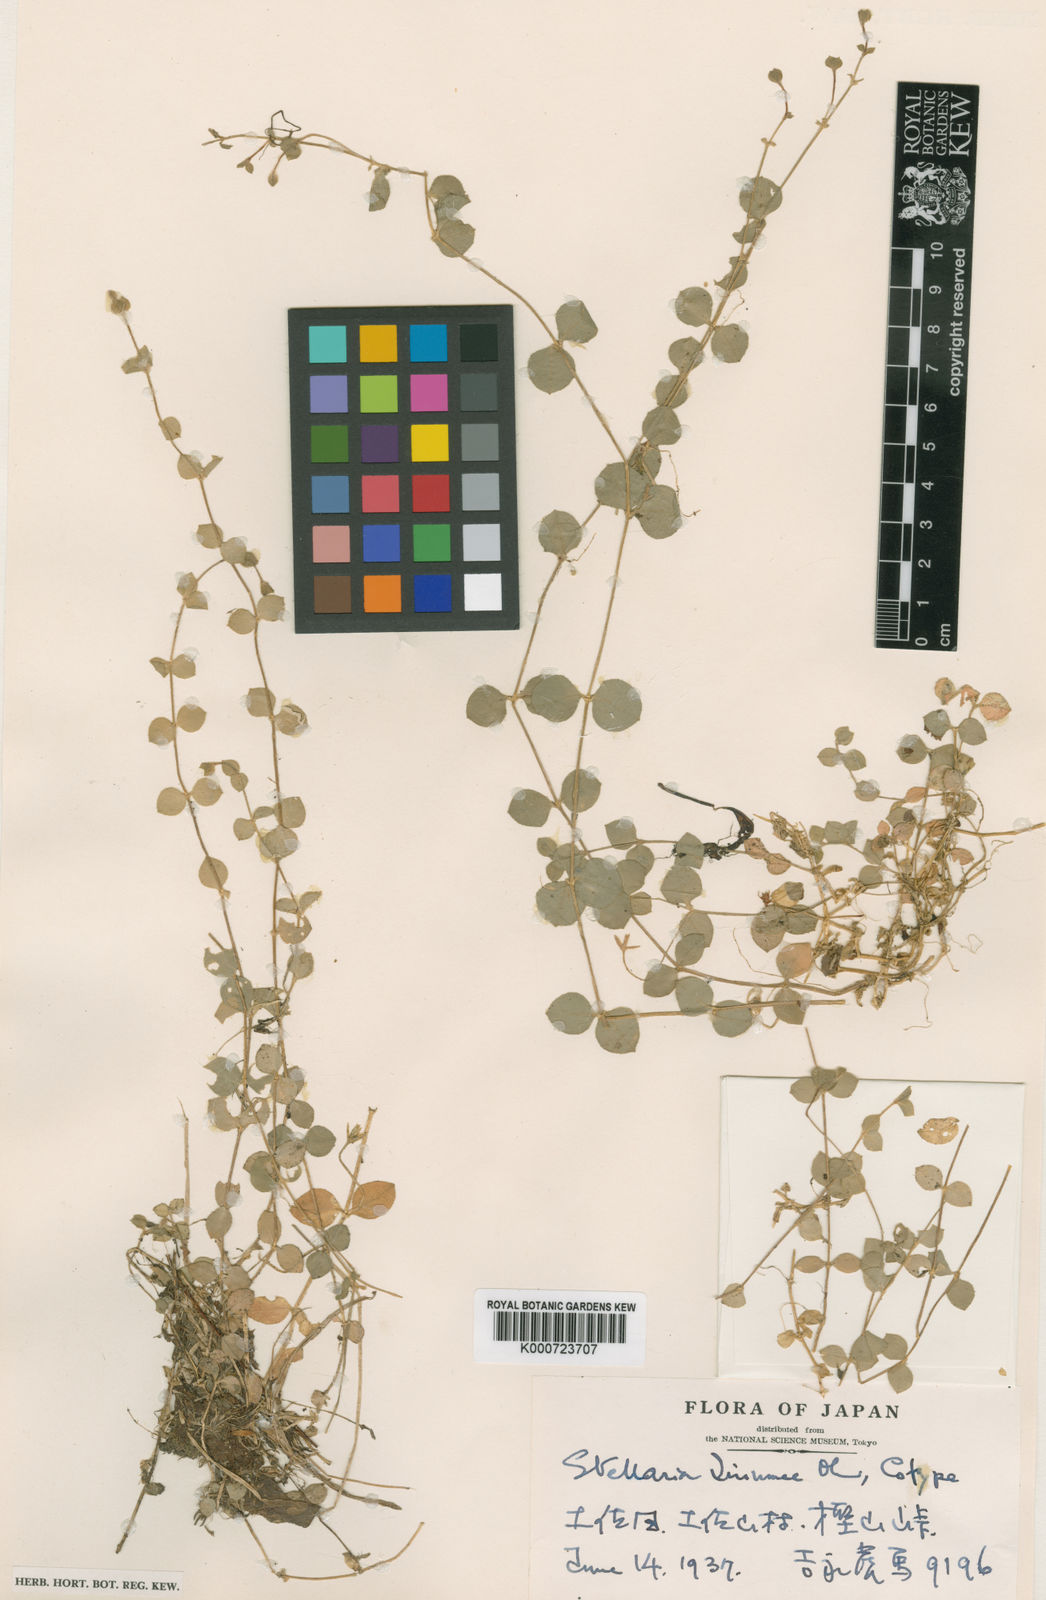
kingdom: Plantae
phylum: Tracheophyta
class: Magnoliopsida
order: Caryophyllales
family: Caryophyllaceae
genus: Stellaria
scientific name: Stellaria uchiyamana
